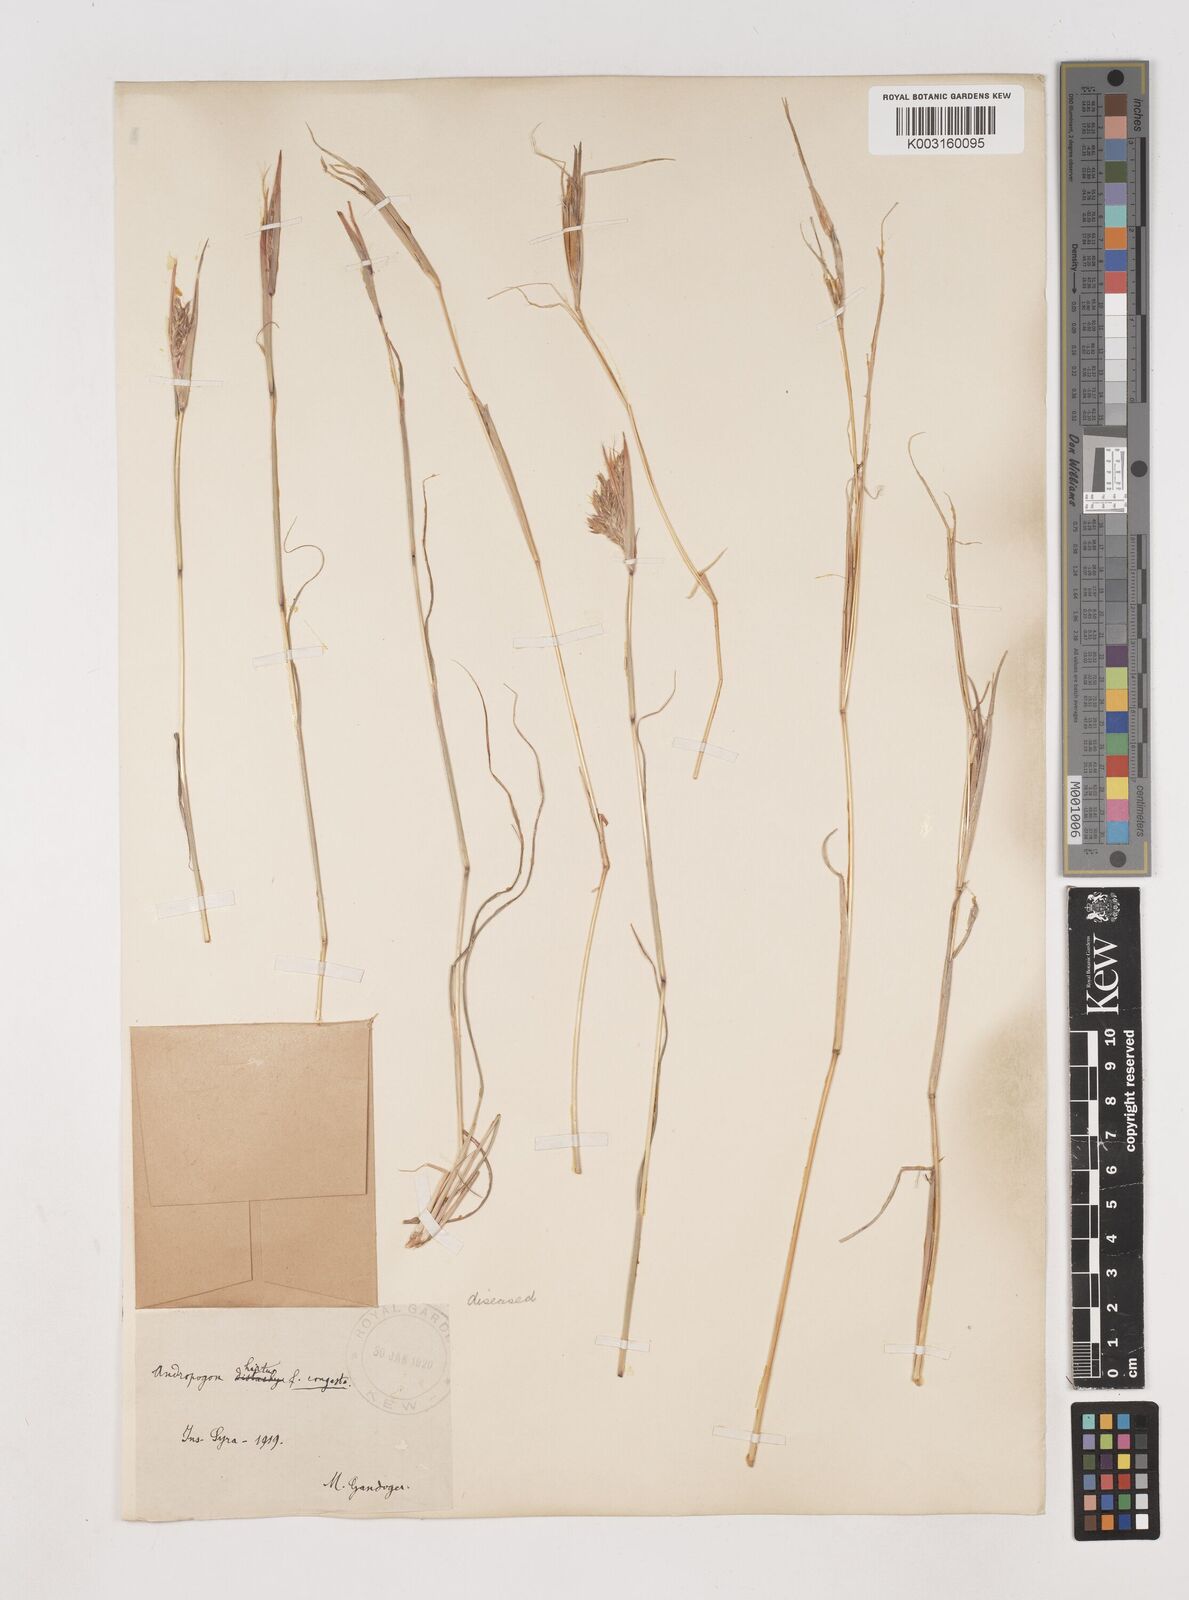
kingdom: Plantae
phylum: Tracheophyta
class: Liliopsida
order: Poales
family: Poaceae
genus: Hyparrhenia
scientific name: Hyparrhenia hirta
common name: Thatching grass
